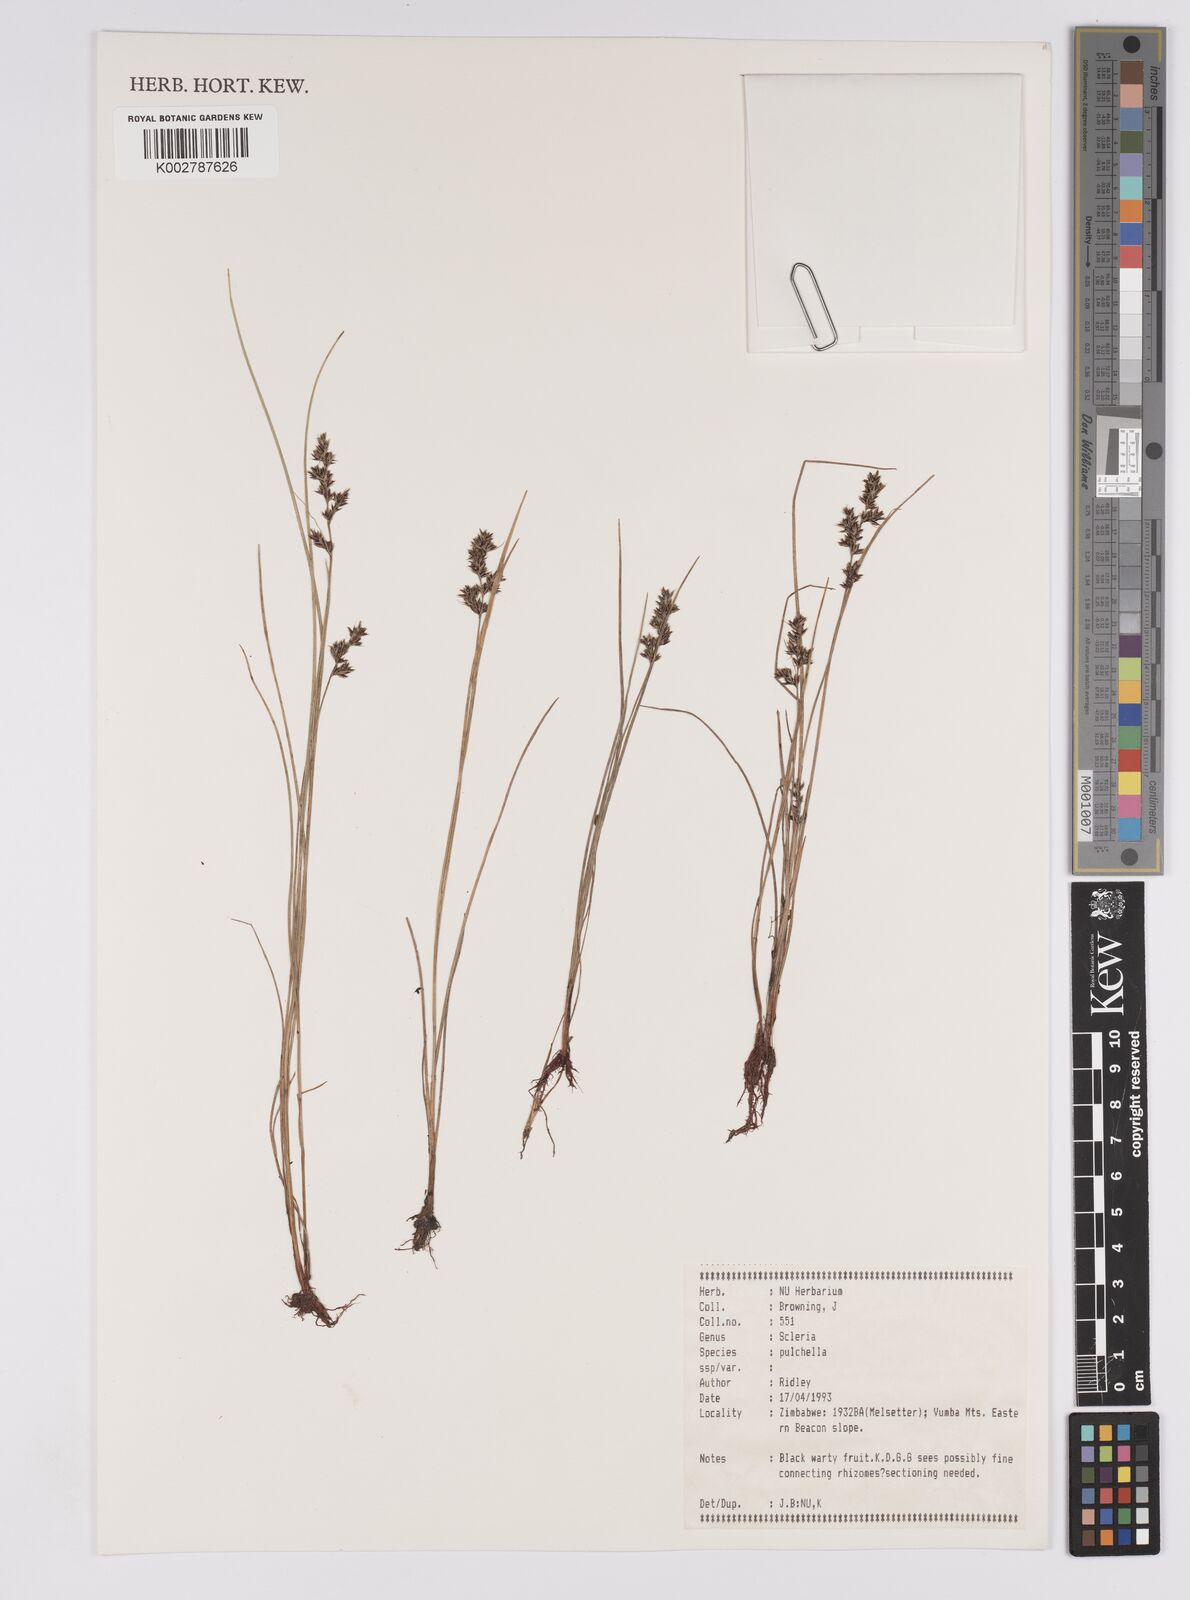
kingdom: Plantae
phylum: Tracheophyta
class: Liliopsida
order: Poales
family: Cyperaceae
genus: Scleria
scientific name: Scleria pulchella
